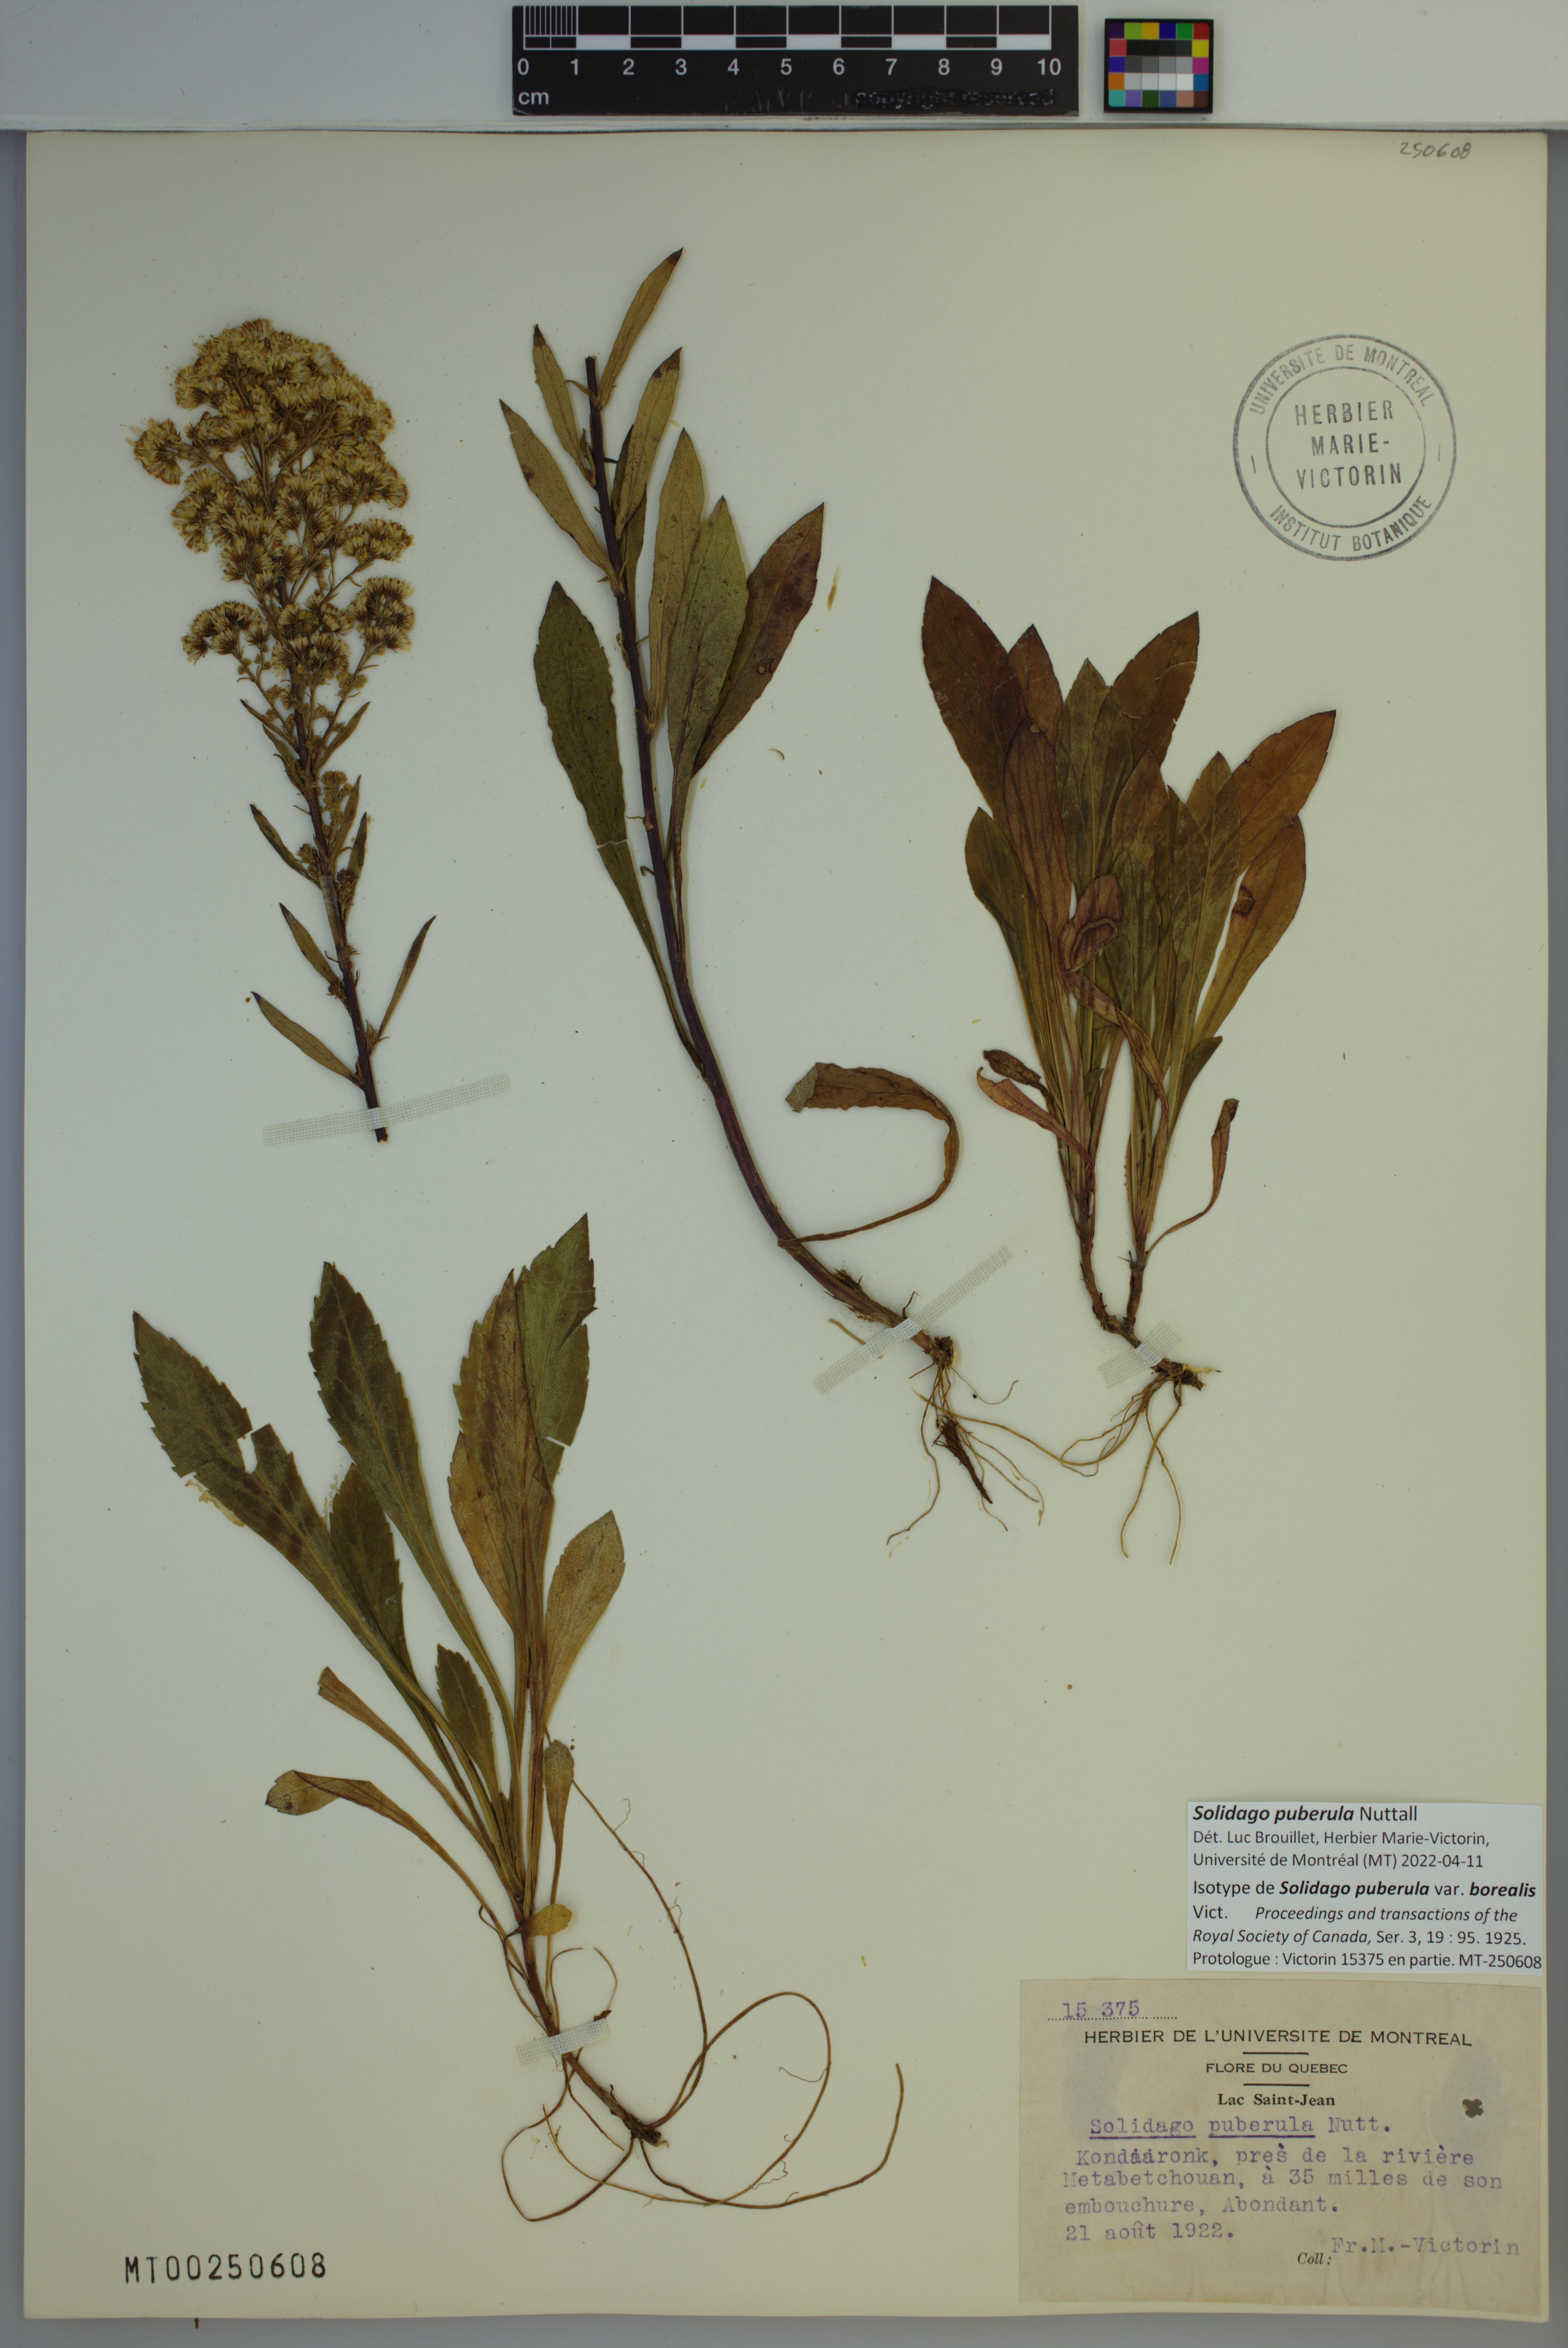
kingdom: Plantae
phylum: Tracheophyta
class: Magnoliopsida
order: Asterales
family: Asteraceae
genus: Solidago
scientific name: Solidago puberula
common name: Downy goldenrod
